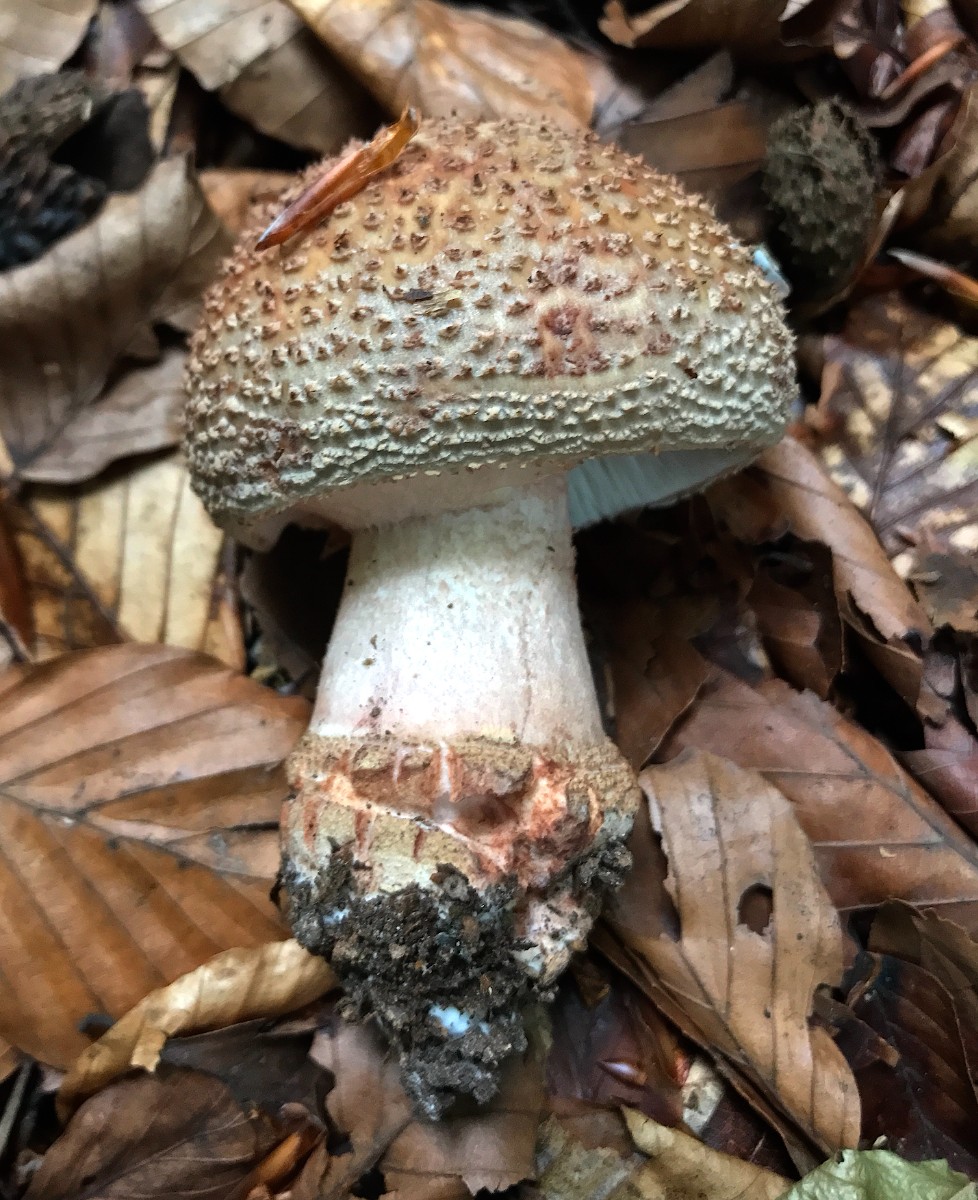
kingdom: Fungi
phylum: Basidiomycota
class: Agaricomycetes
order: Agaricales
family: Amanitaceae
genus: Amanita
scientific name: Amanita rubescens
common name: rødmende fluesvamp
